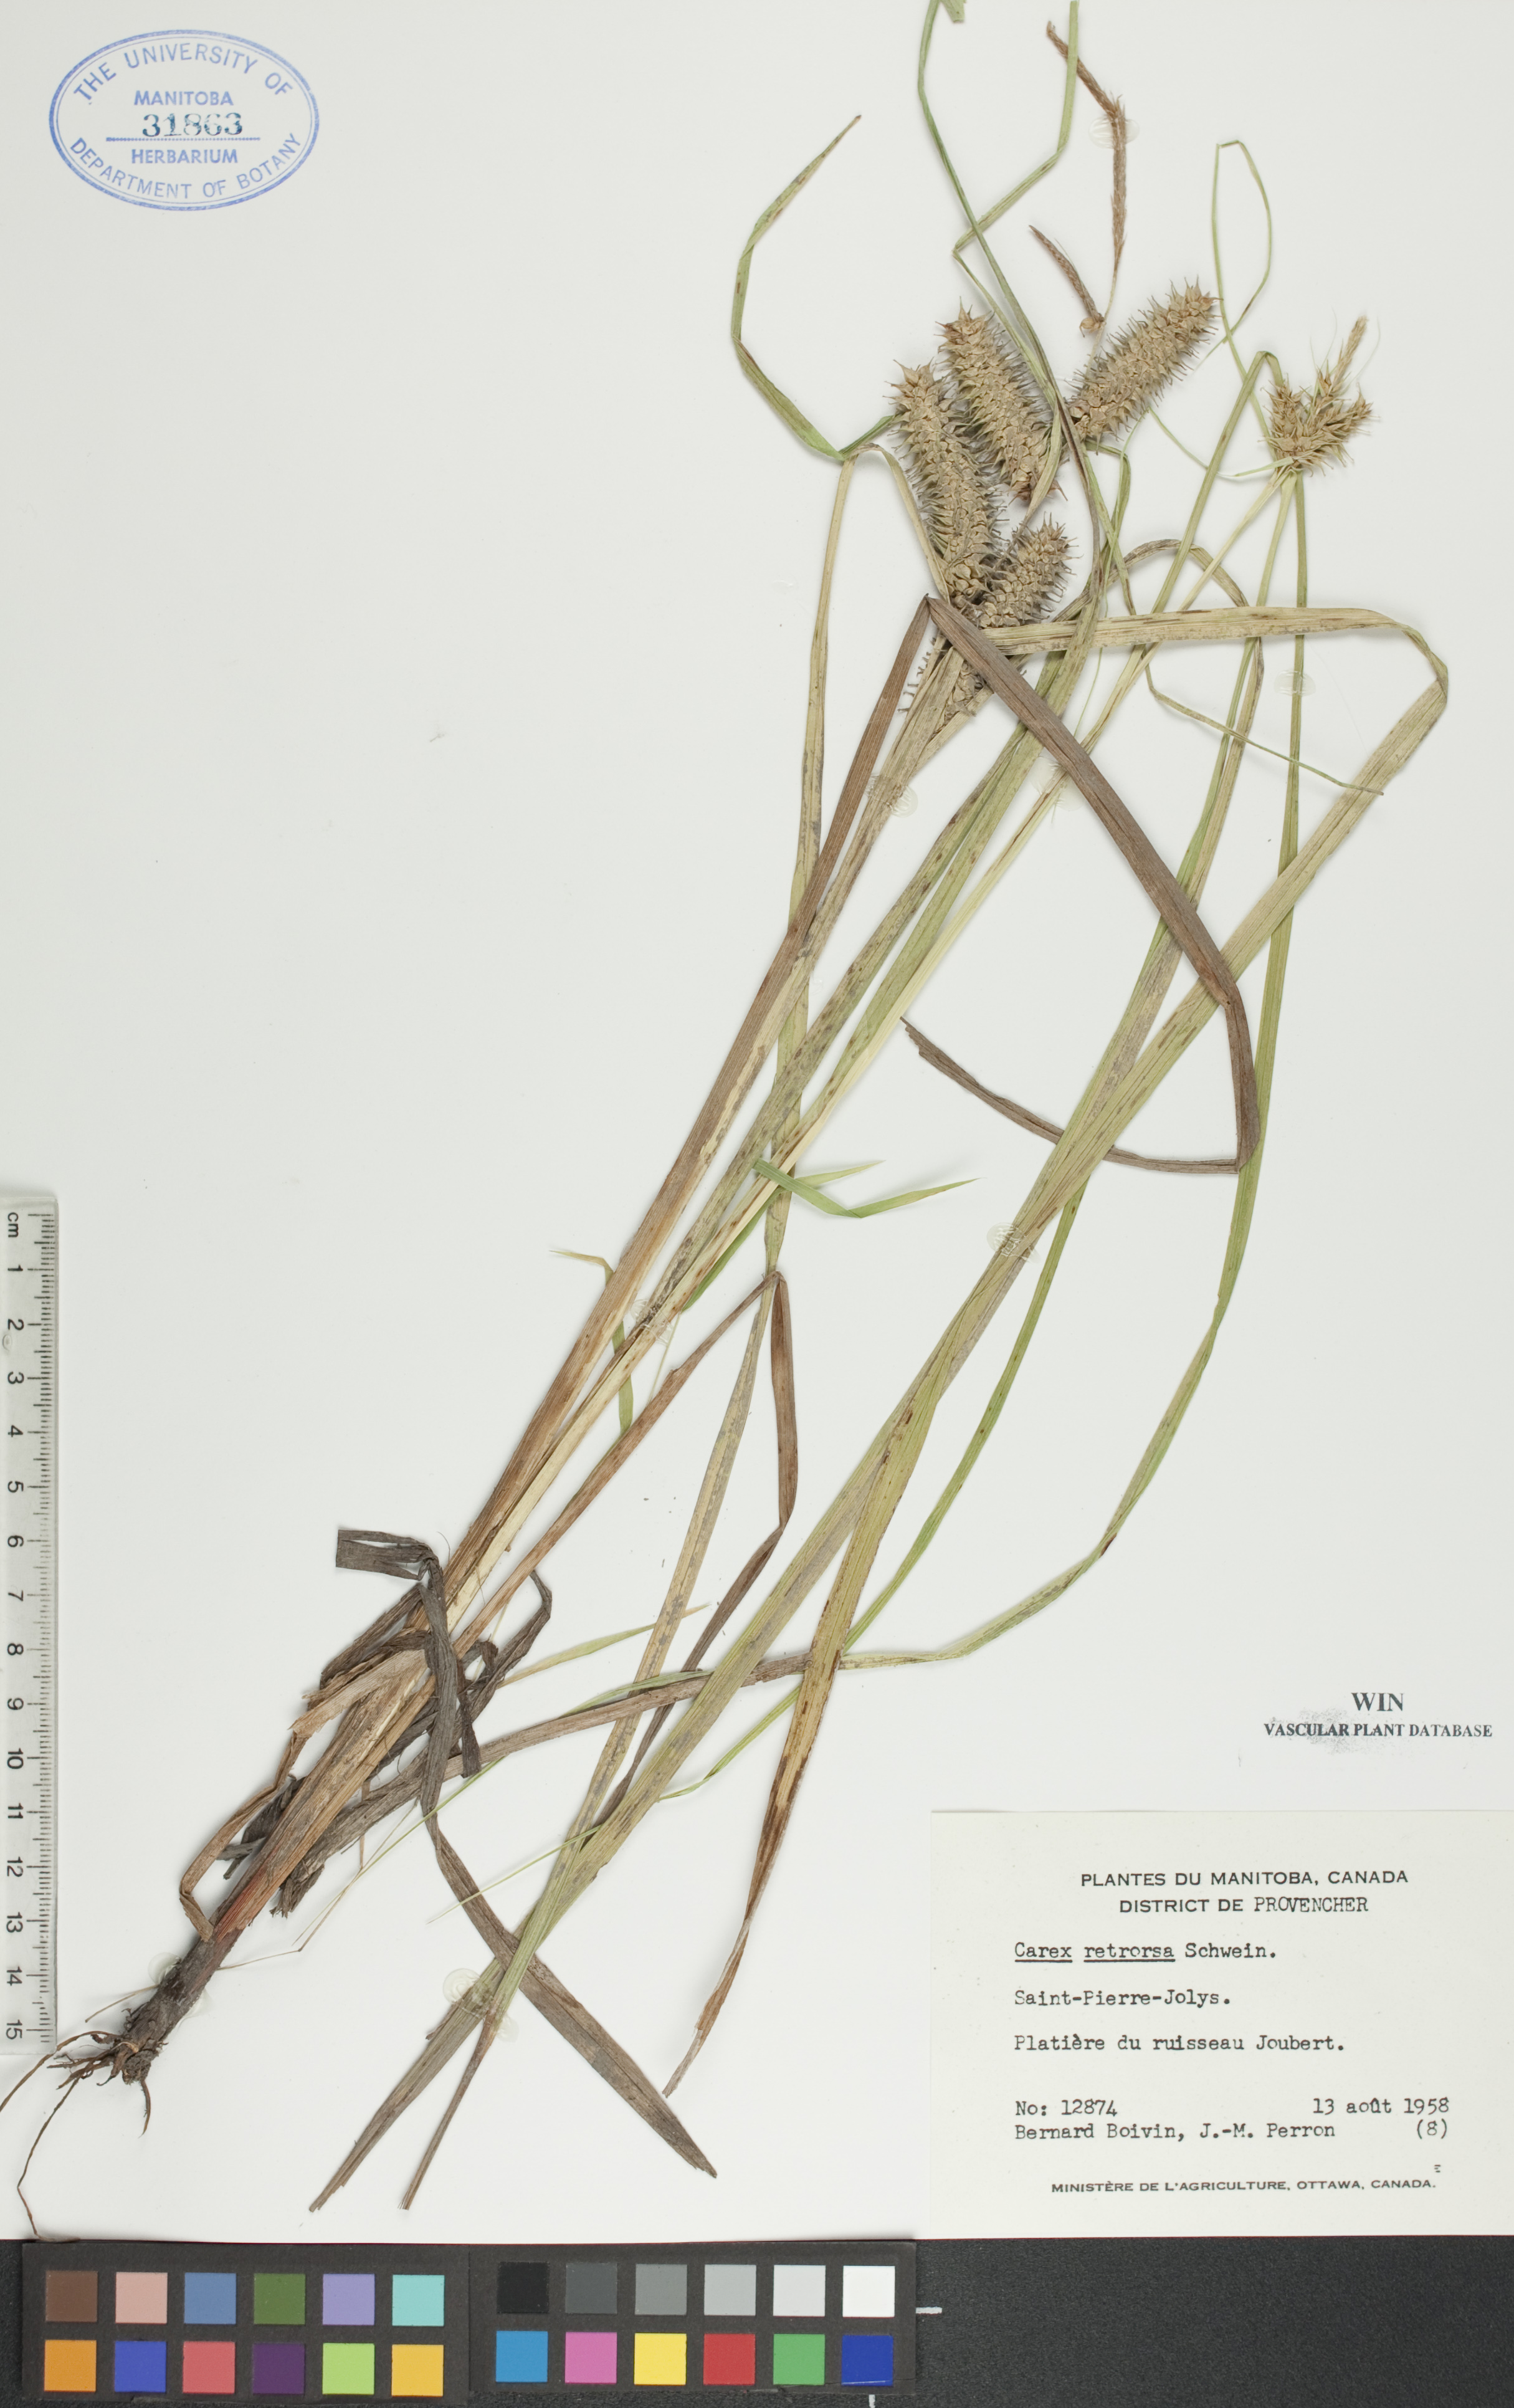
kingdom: Plantae
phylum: Tracheophyta
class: Liliopsida
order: Poales
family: Cyperaceae
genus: Carex
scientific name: Carex retrorsa
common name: Knot-sheath sedge
